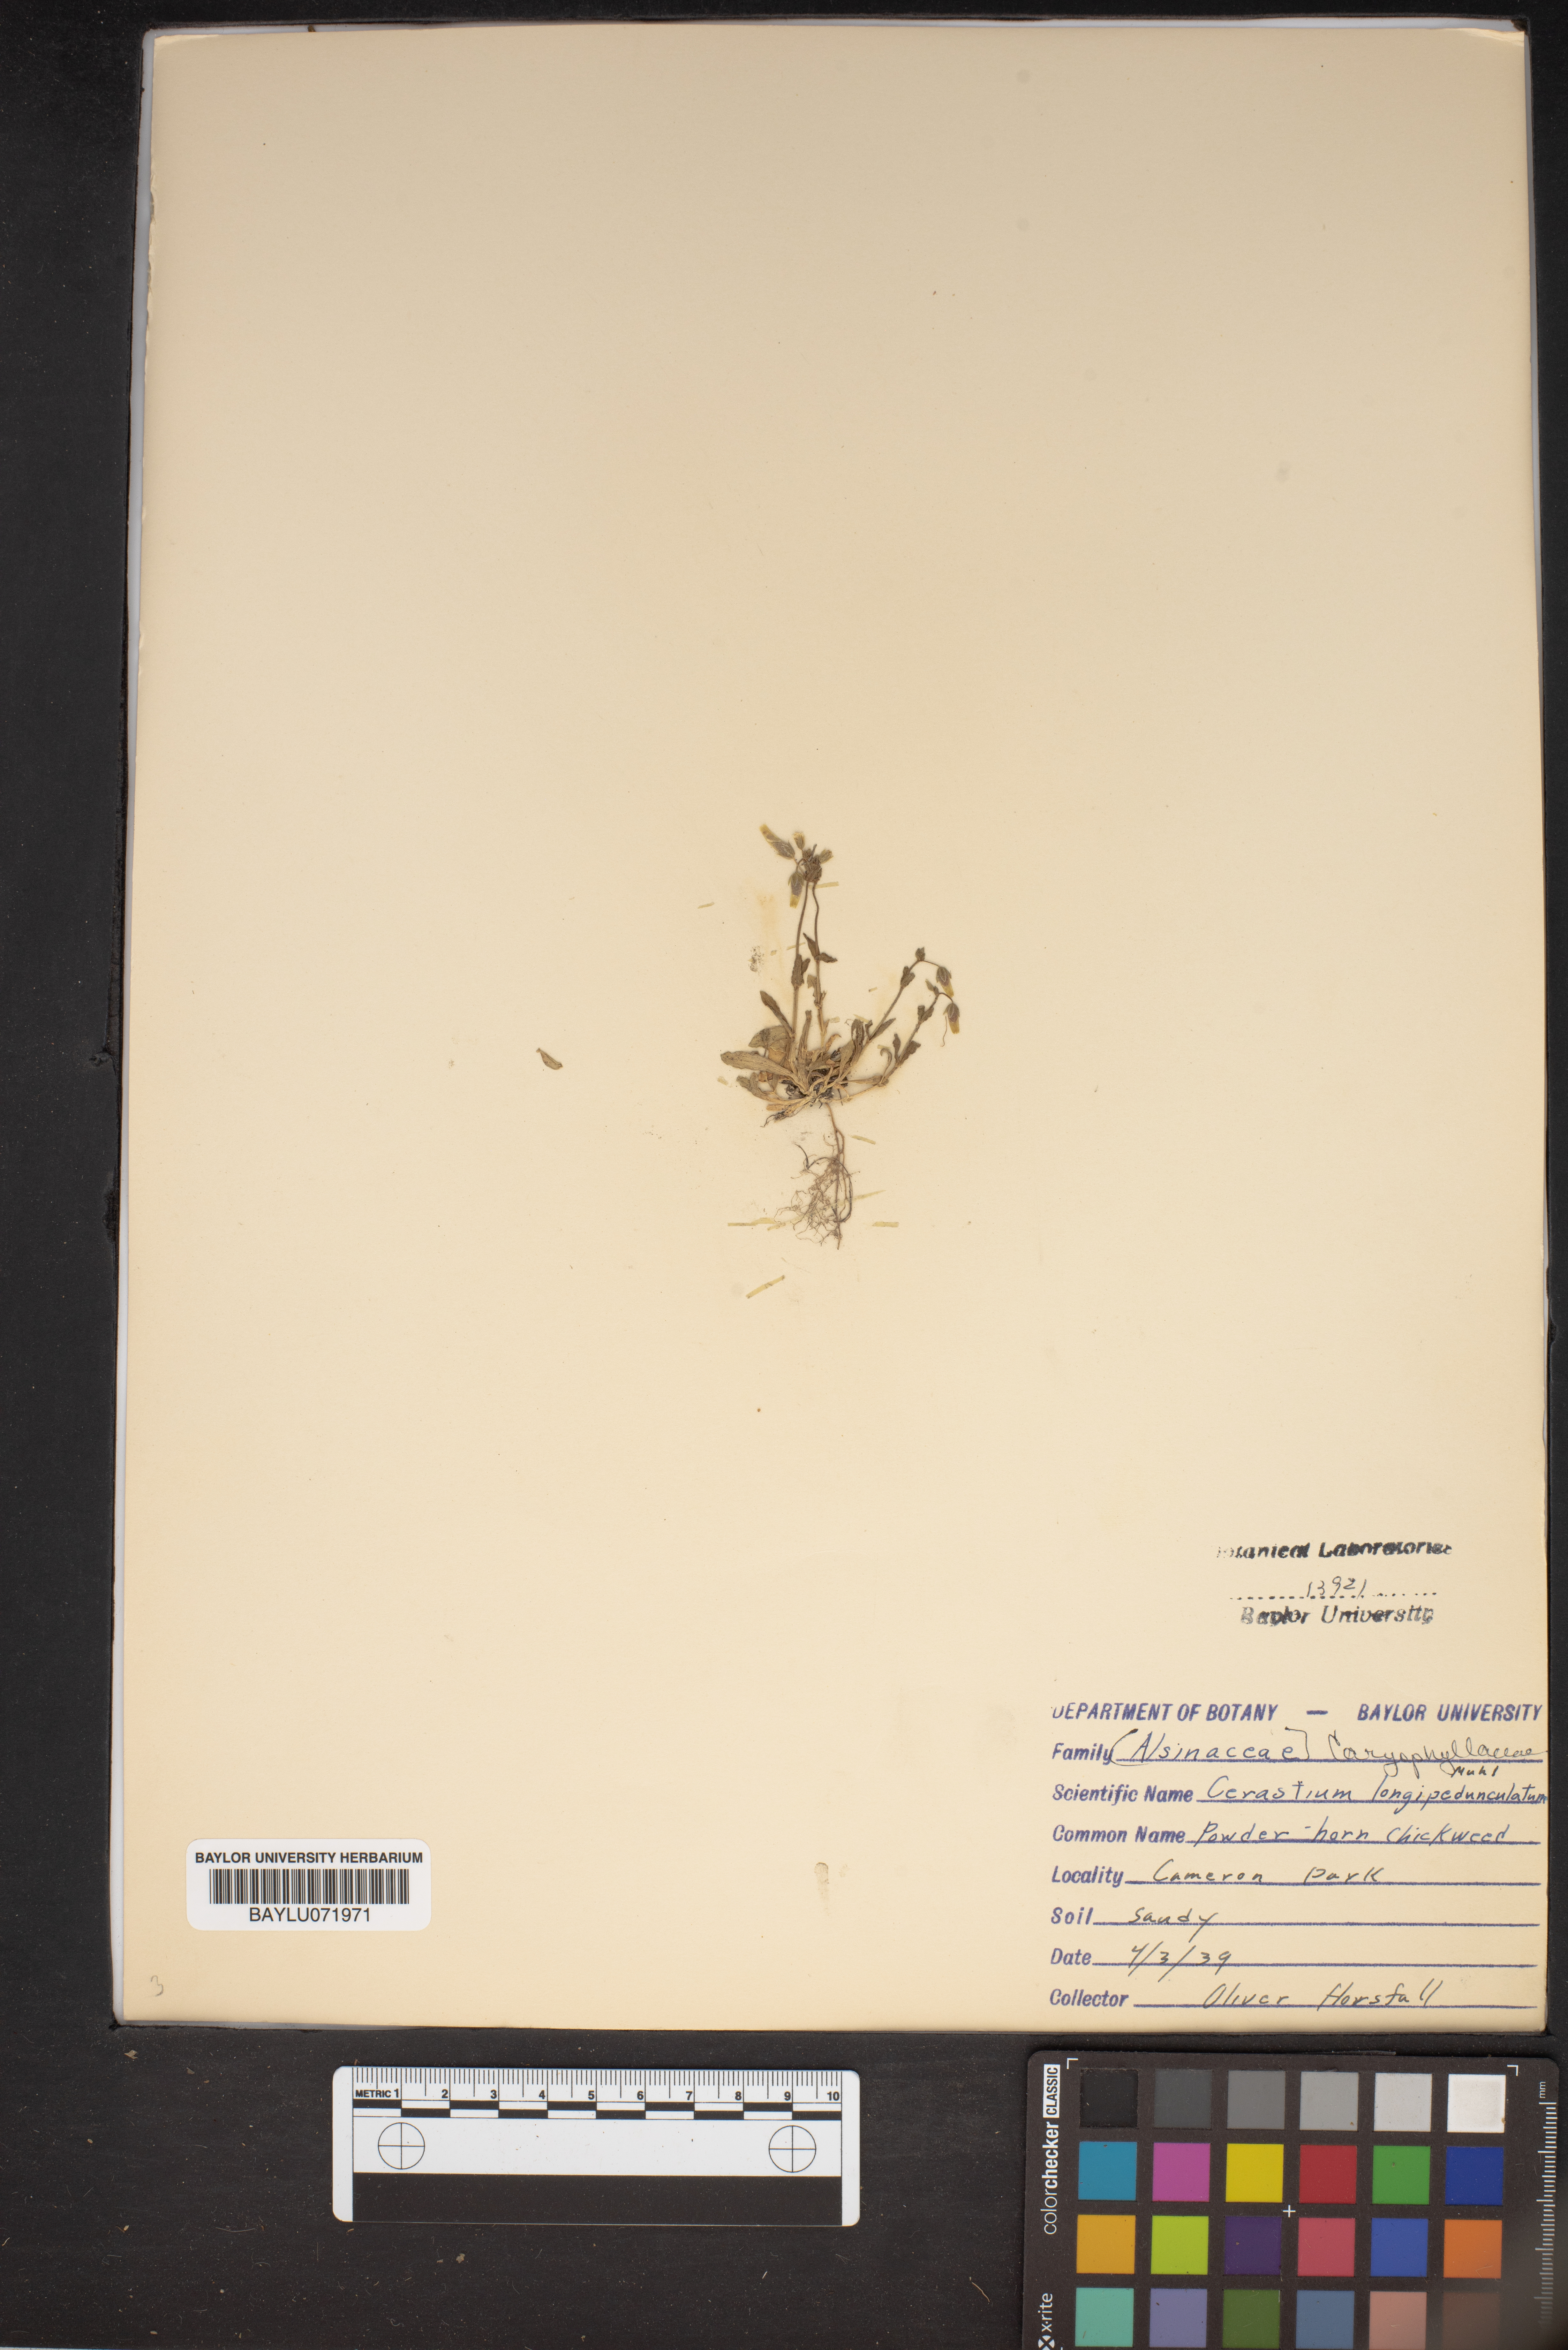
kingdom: Plantae
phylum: Tracheophyta
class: Magnoliopsida
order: Caryophyllales
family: Caryophyllaceae
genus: Cerastium
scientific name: Cerastium nutans
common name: Long-stalked chickweed
